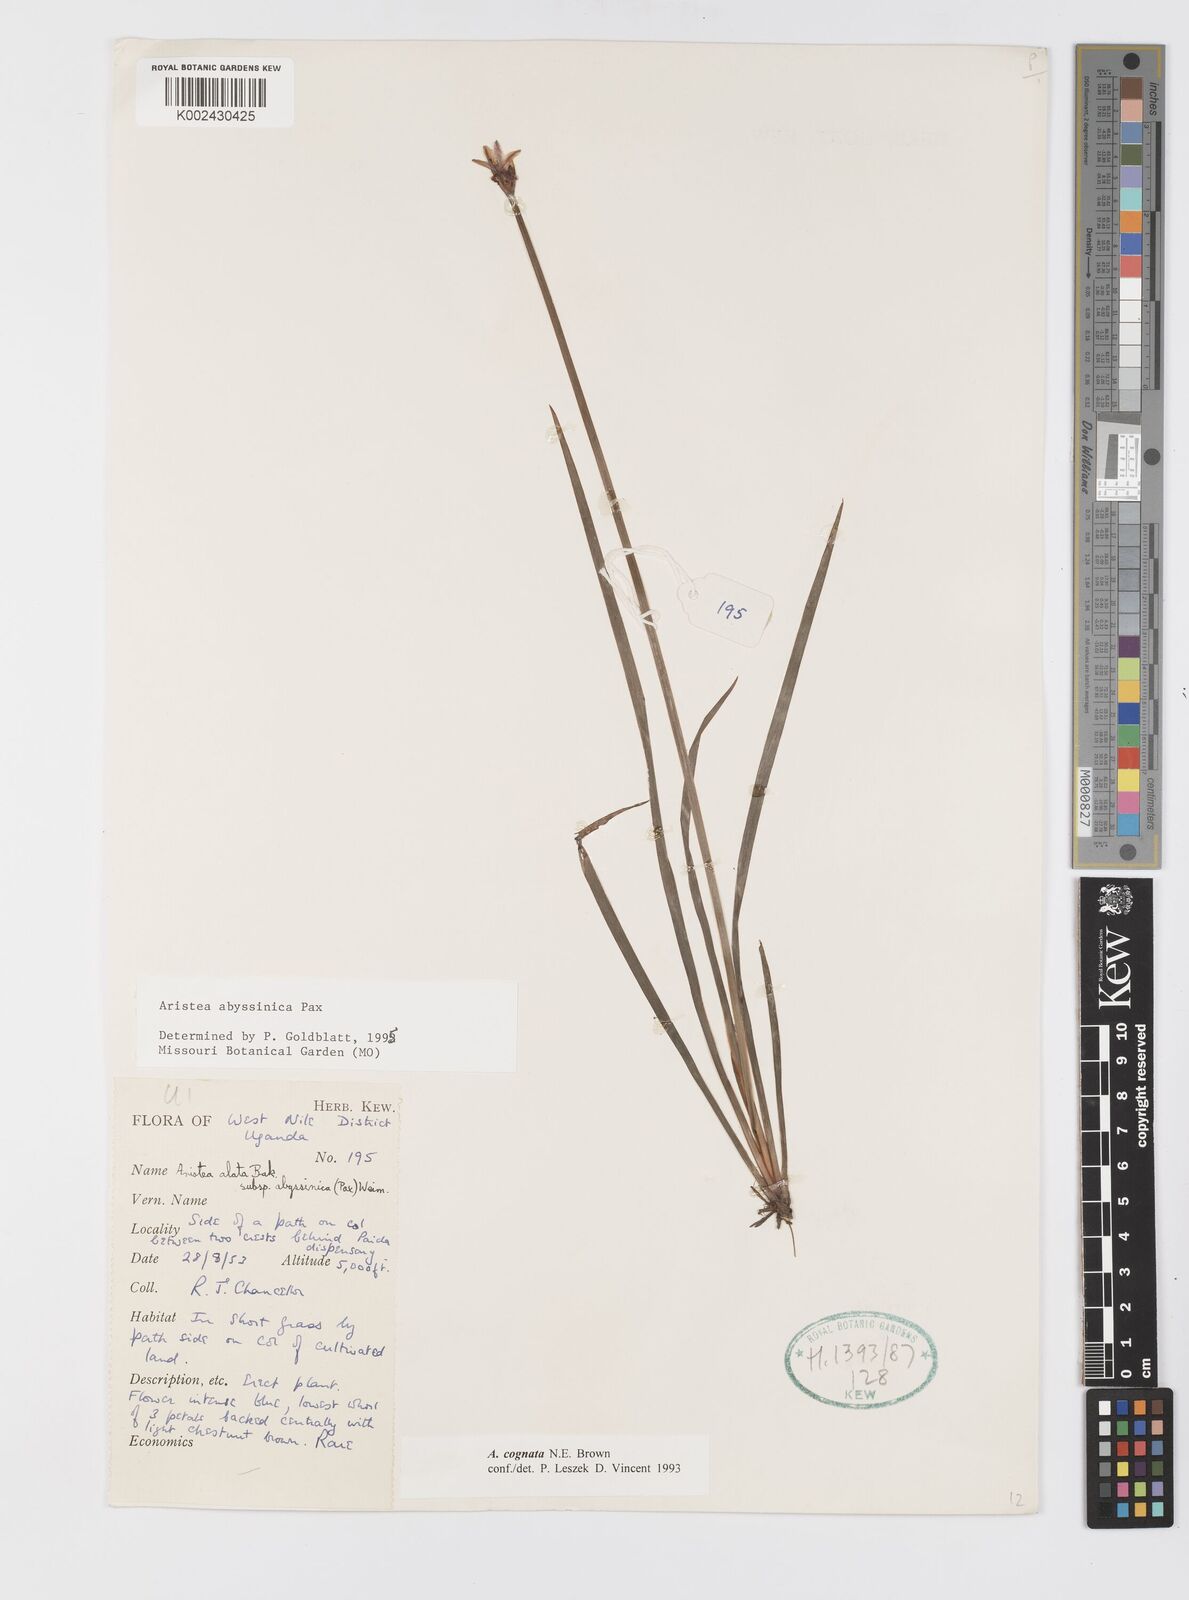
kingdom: Plantae
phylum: Tracheophyta
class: Liliopsida
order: Asparagales
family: Iridaceae
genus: Aristea
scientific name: Aristea abyssinica
